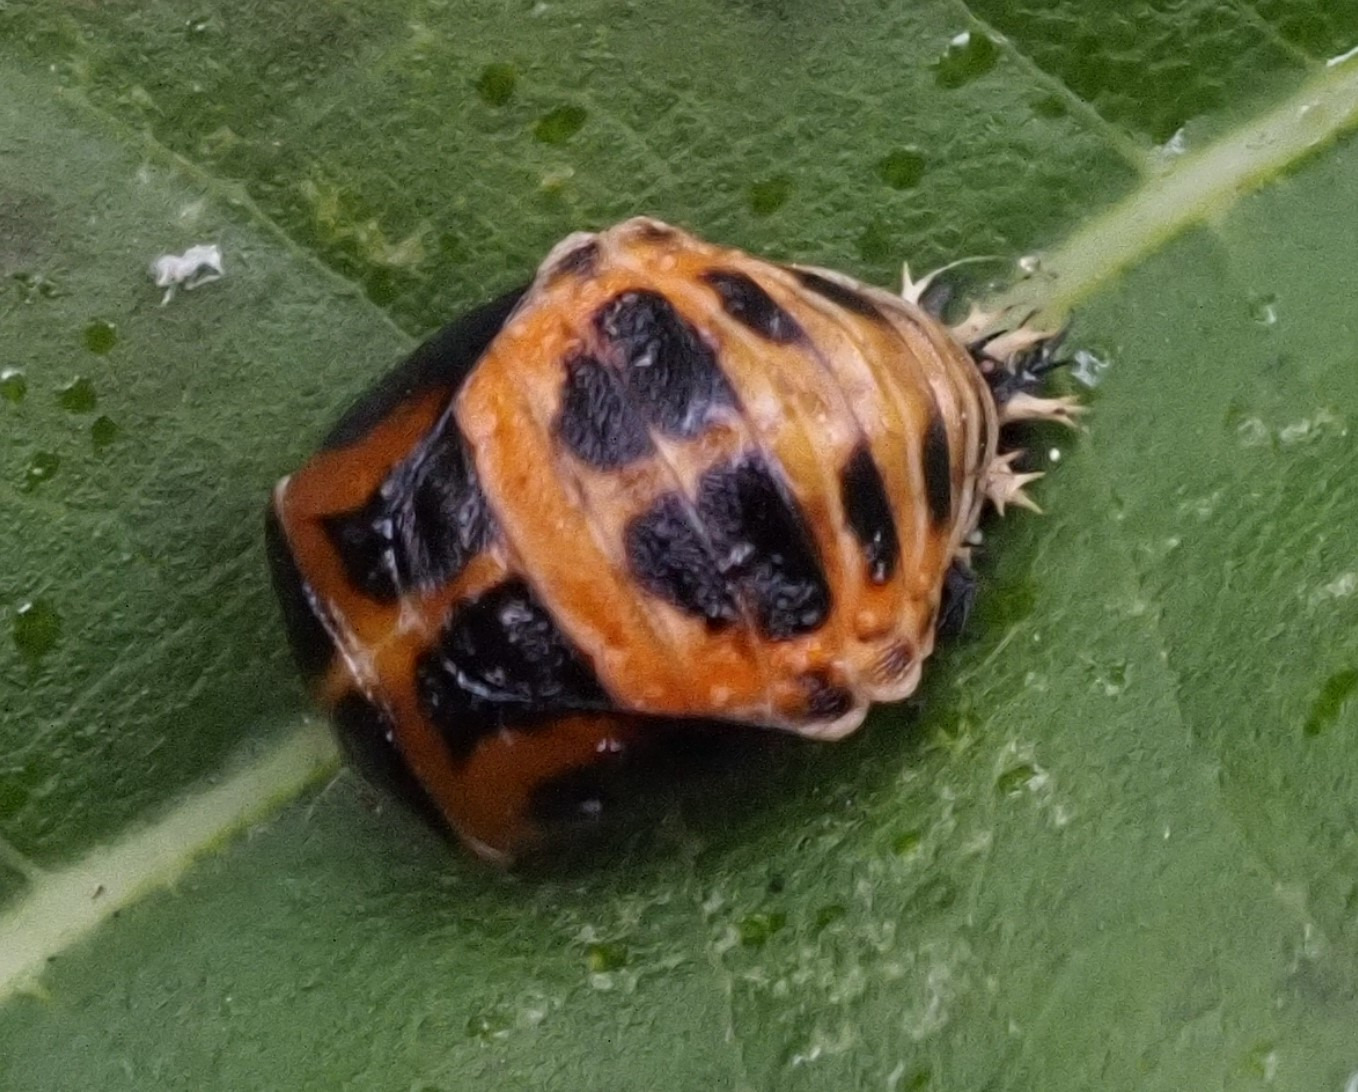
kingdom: Animalia
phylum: Arthropoda
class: Insecta
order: Coleoptera
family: Coccinellidae
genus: Harmonia
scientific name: Harmonia axyridis
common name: Harlekinmariehøne
